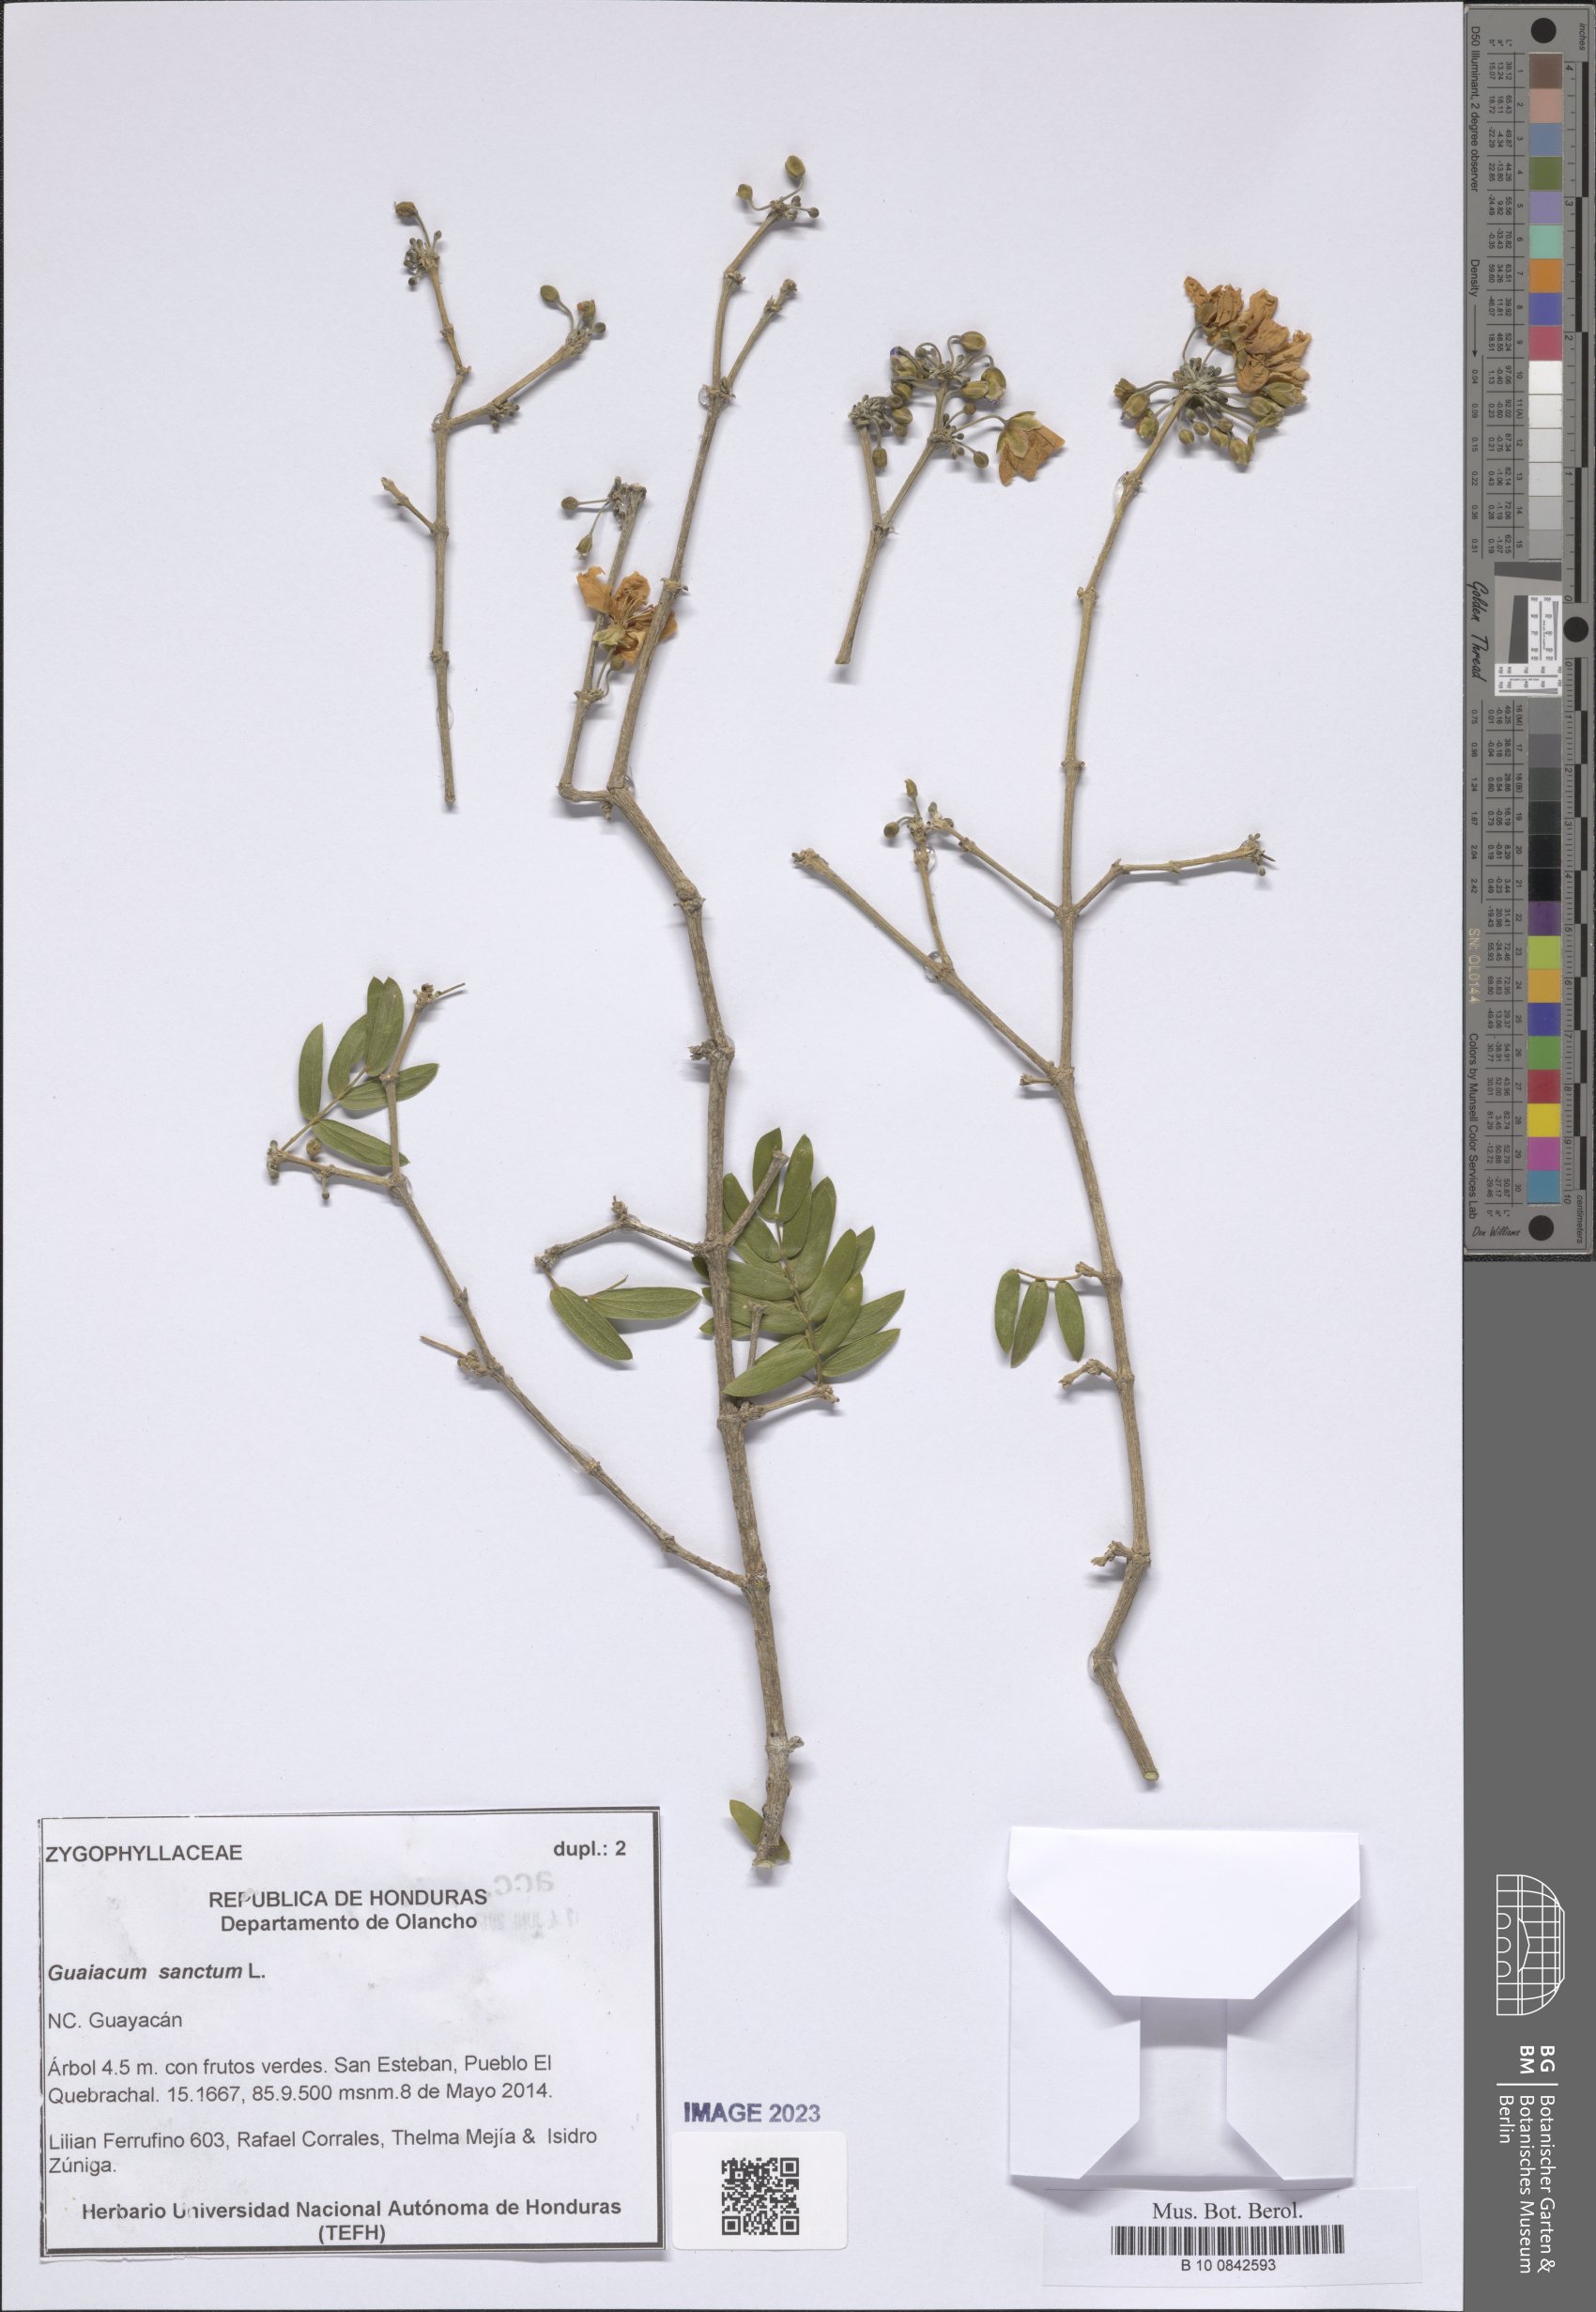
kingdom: Plantae
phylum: Tracheophyta
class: Magnoliopsida
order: Zygophyllales
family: Zygophyllaceae
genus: Guaiacum
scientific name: Guaiacum sanctum
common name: Holywood
